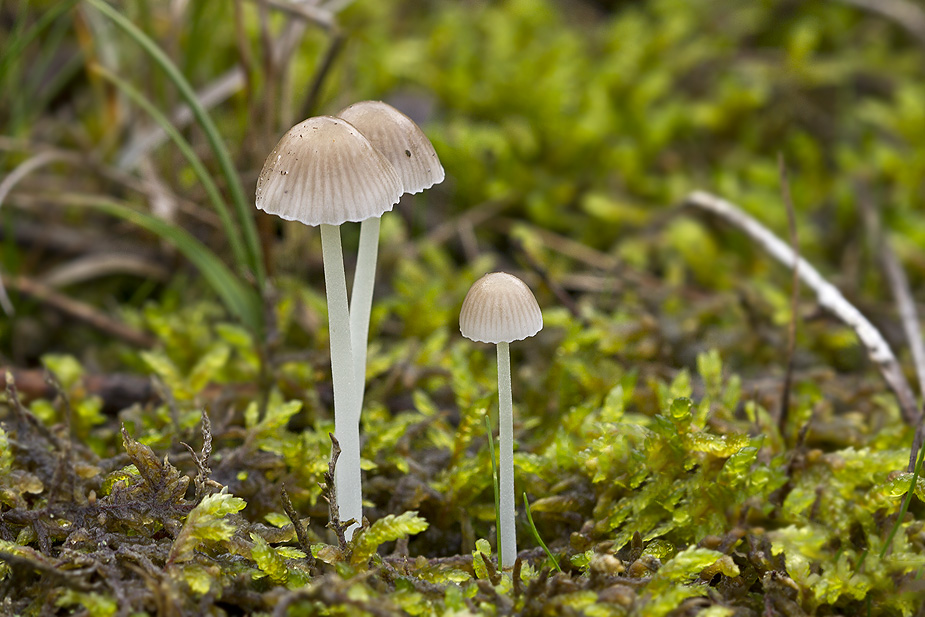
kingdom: Fungi
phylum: Basidiomycota
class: Agaricomycetes
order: Agaricales
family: Mycenaceae
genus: Mycena
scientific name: Mycena epipterygia
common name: Yellowleg bonnet
